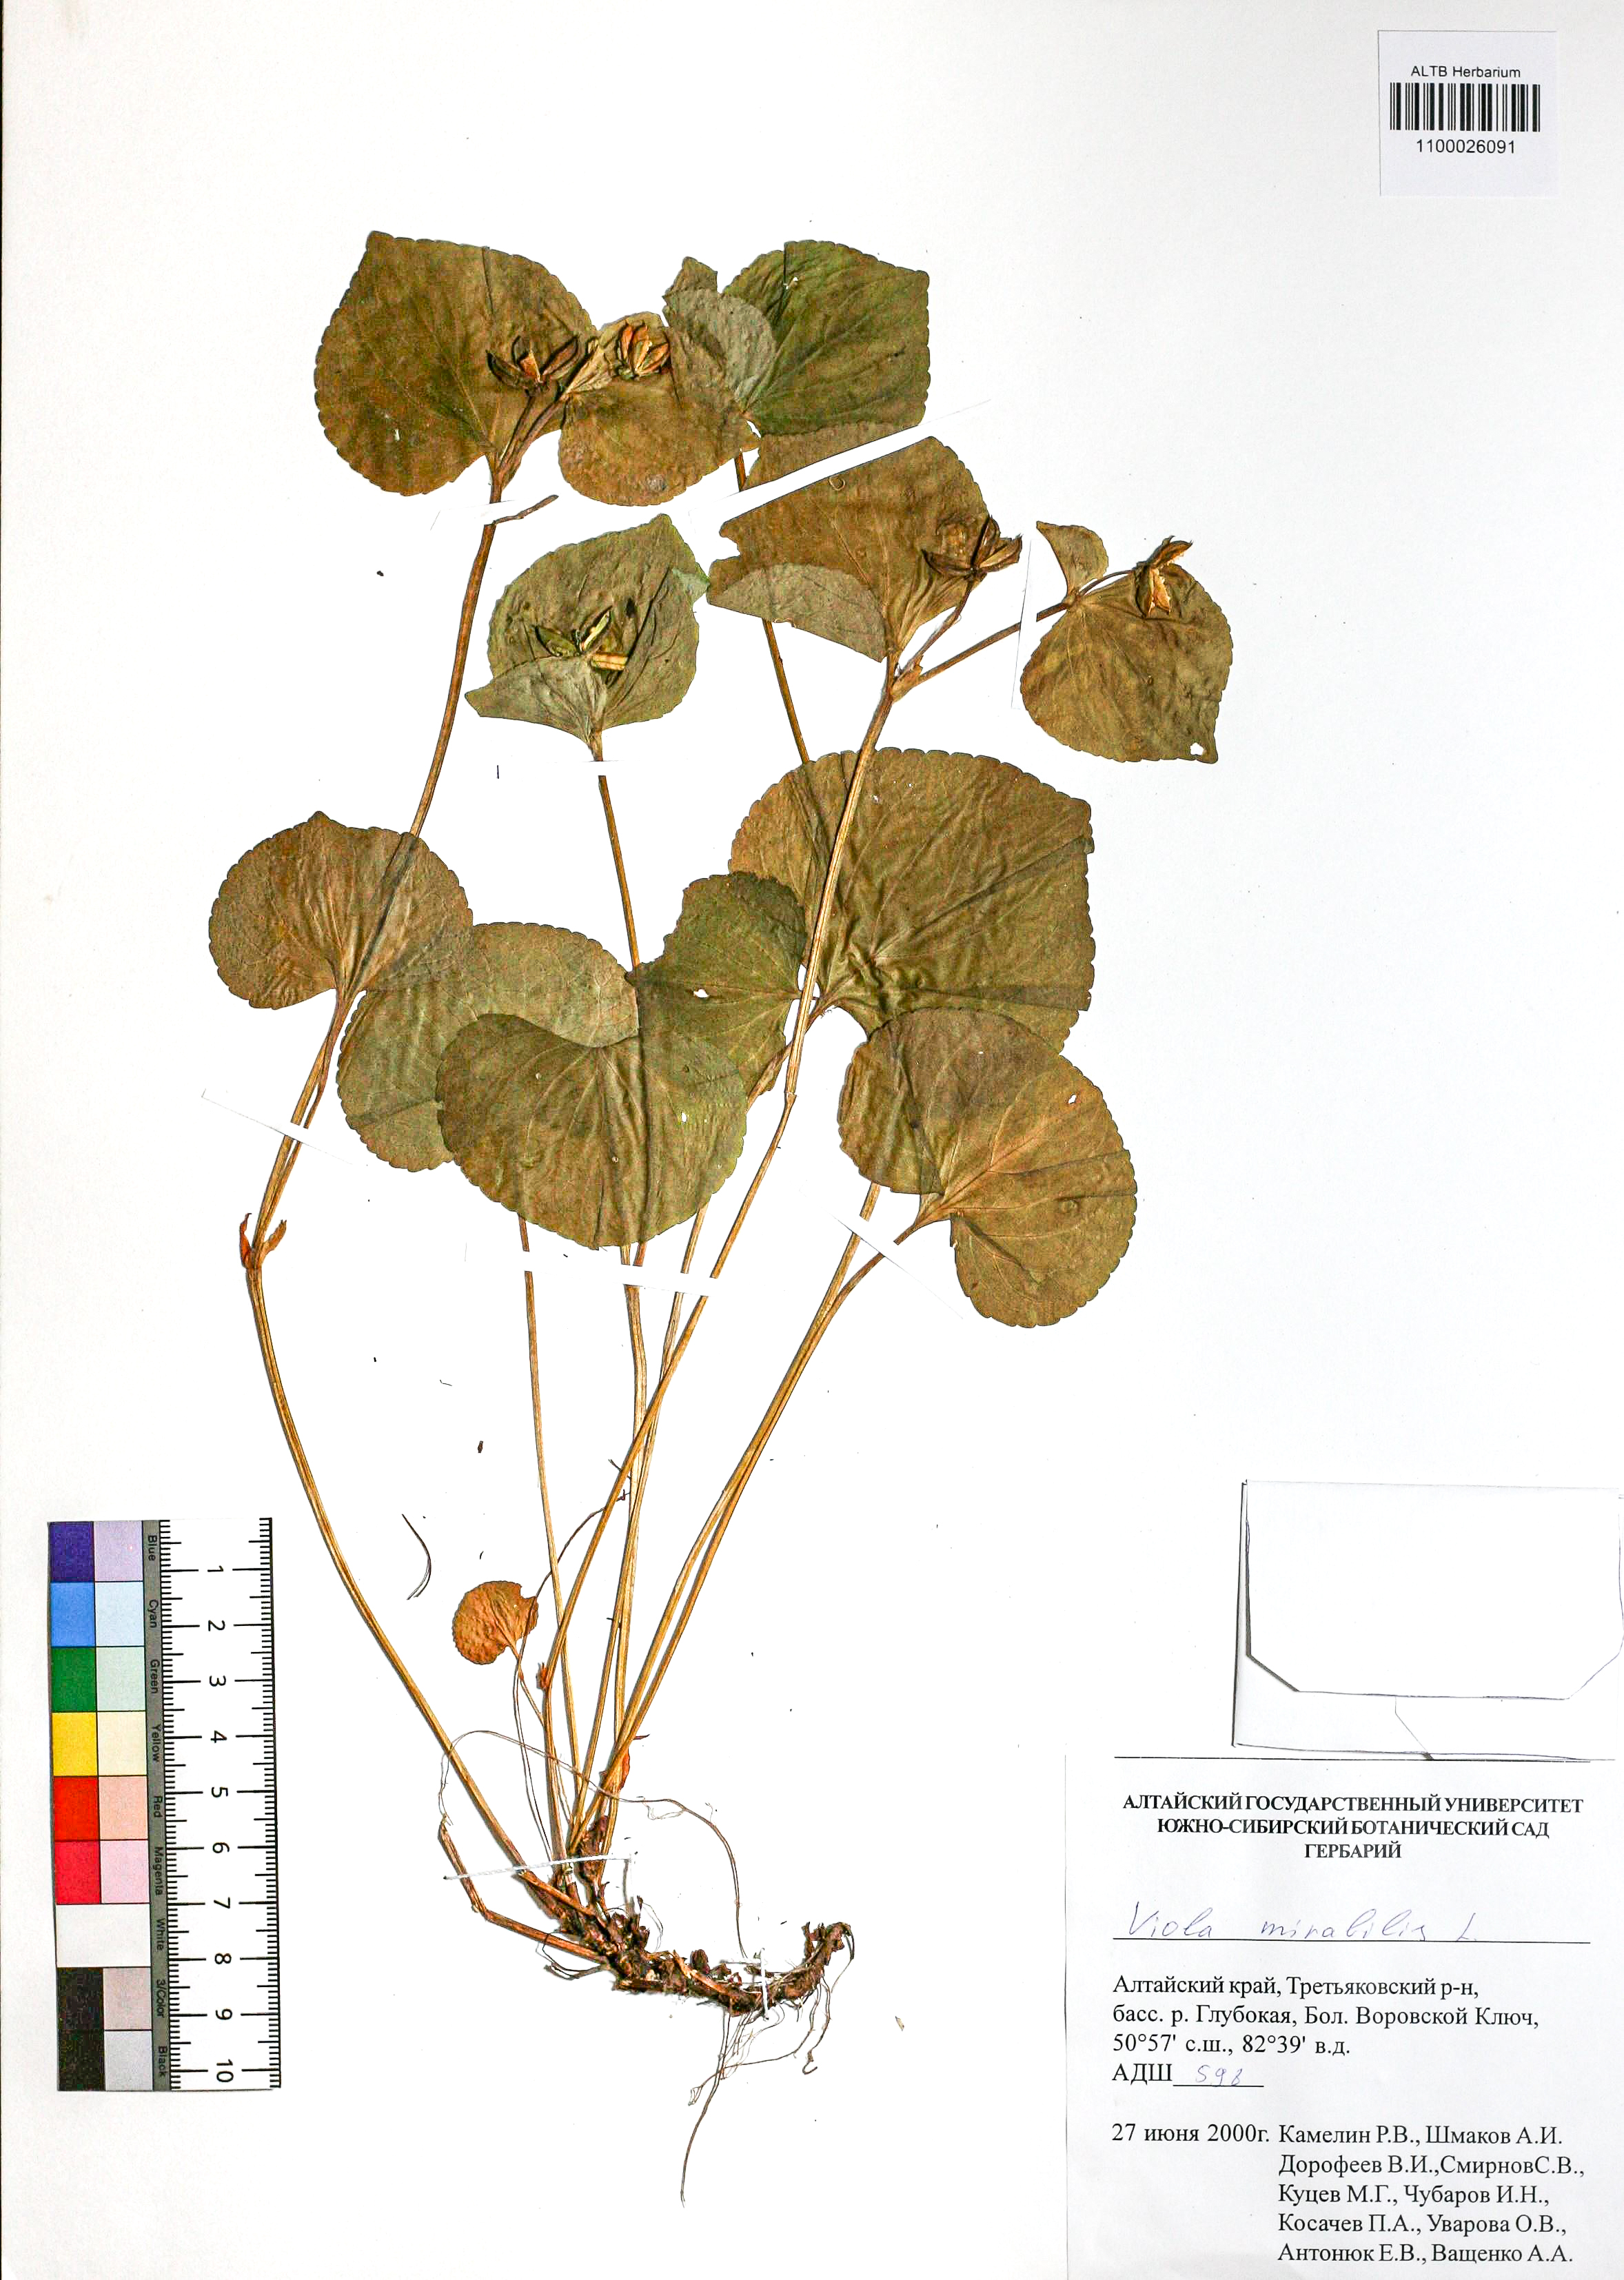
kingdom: Plantae
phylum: Tracheophyta
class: Magnoliopsida
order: Malpighiales
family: Violaceae
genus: Viola
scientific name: Viola mirabilis
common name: Wonder violet
